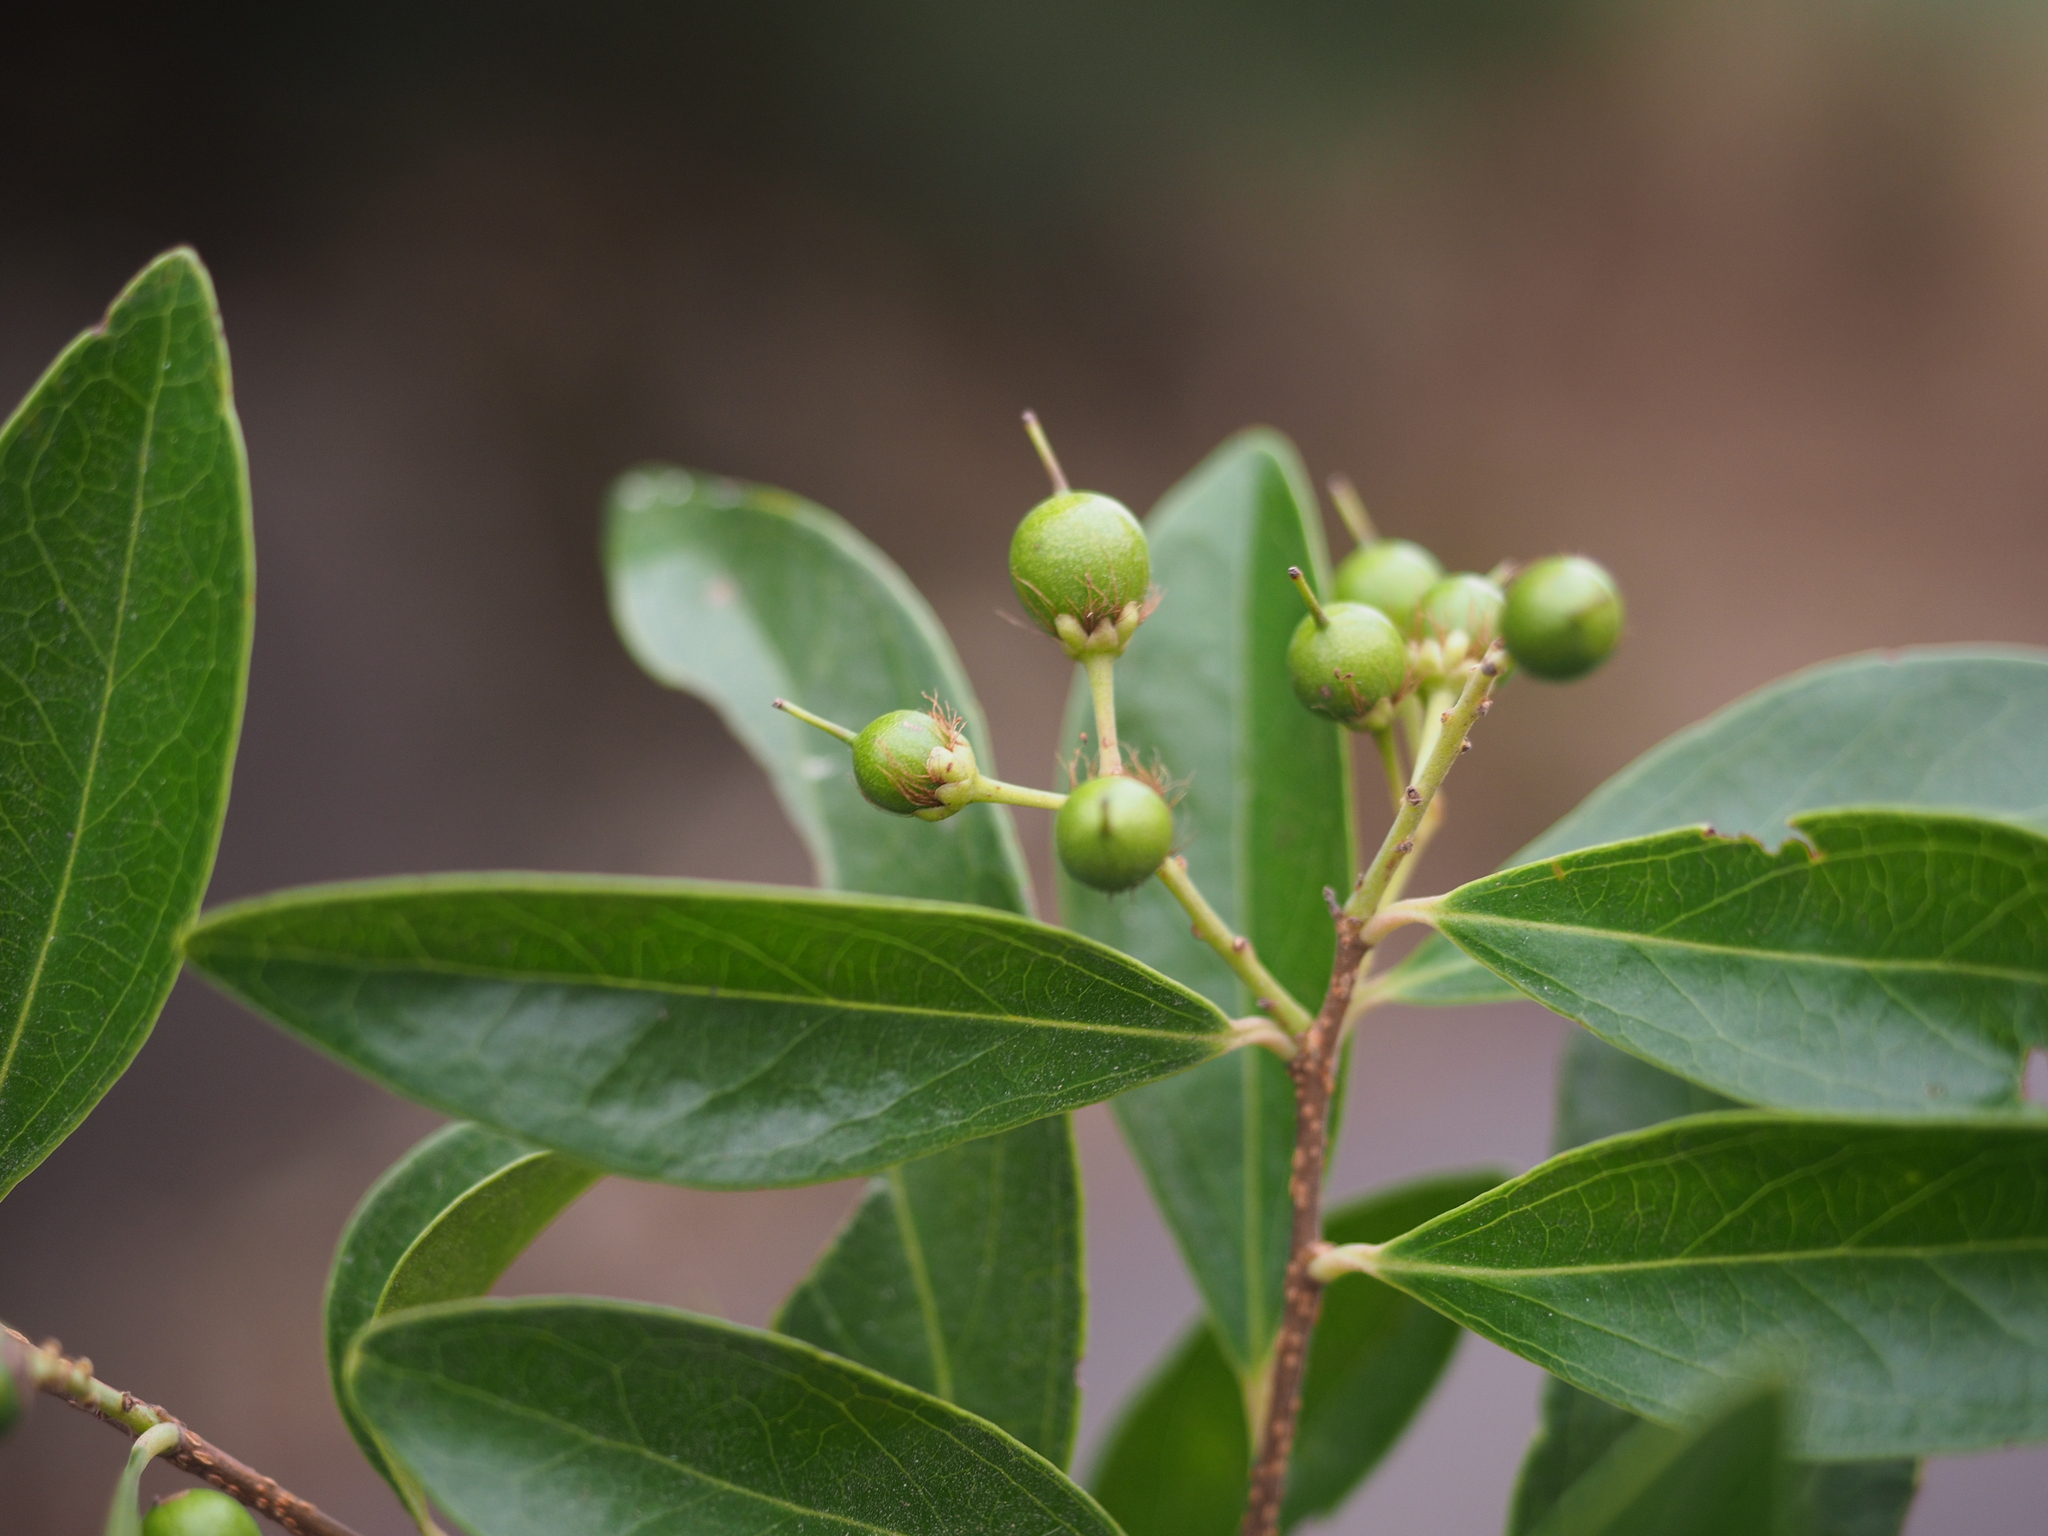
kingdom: Plantae
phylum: Tracheophyta
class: Magnoliopsida
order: Malpighiales
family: Salicaceae
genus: Scolopia
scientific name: Scolopia oldhamii
